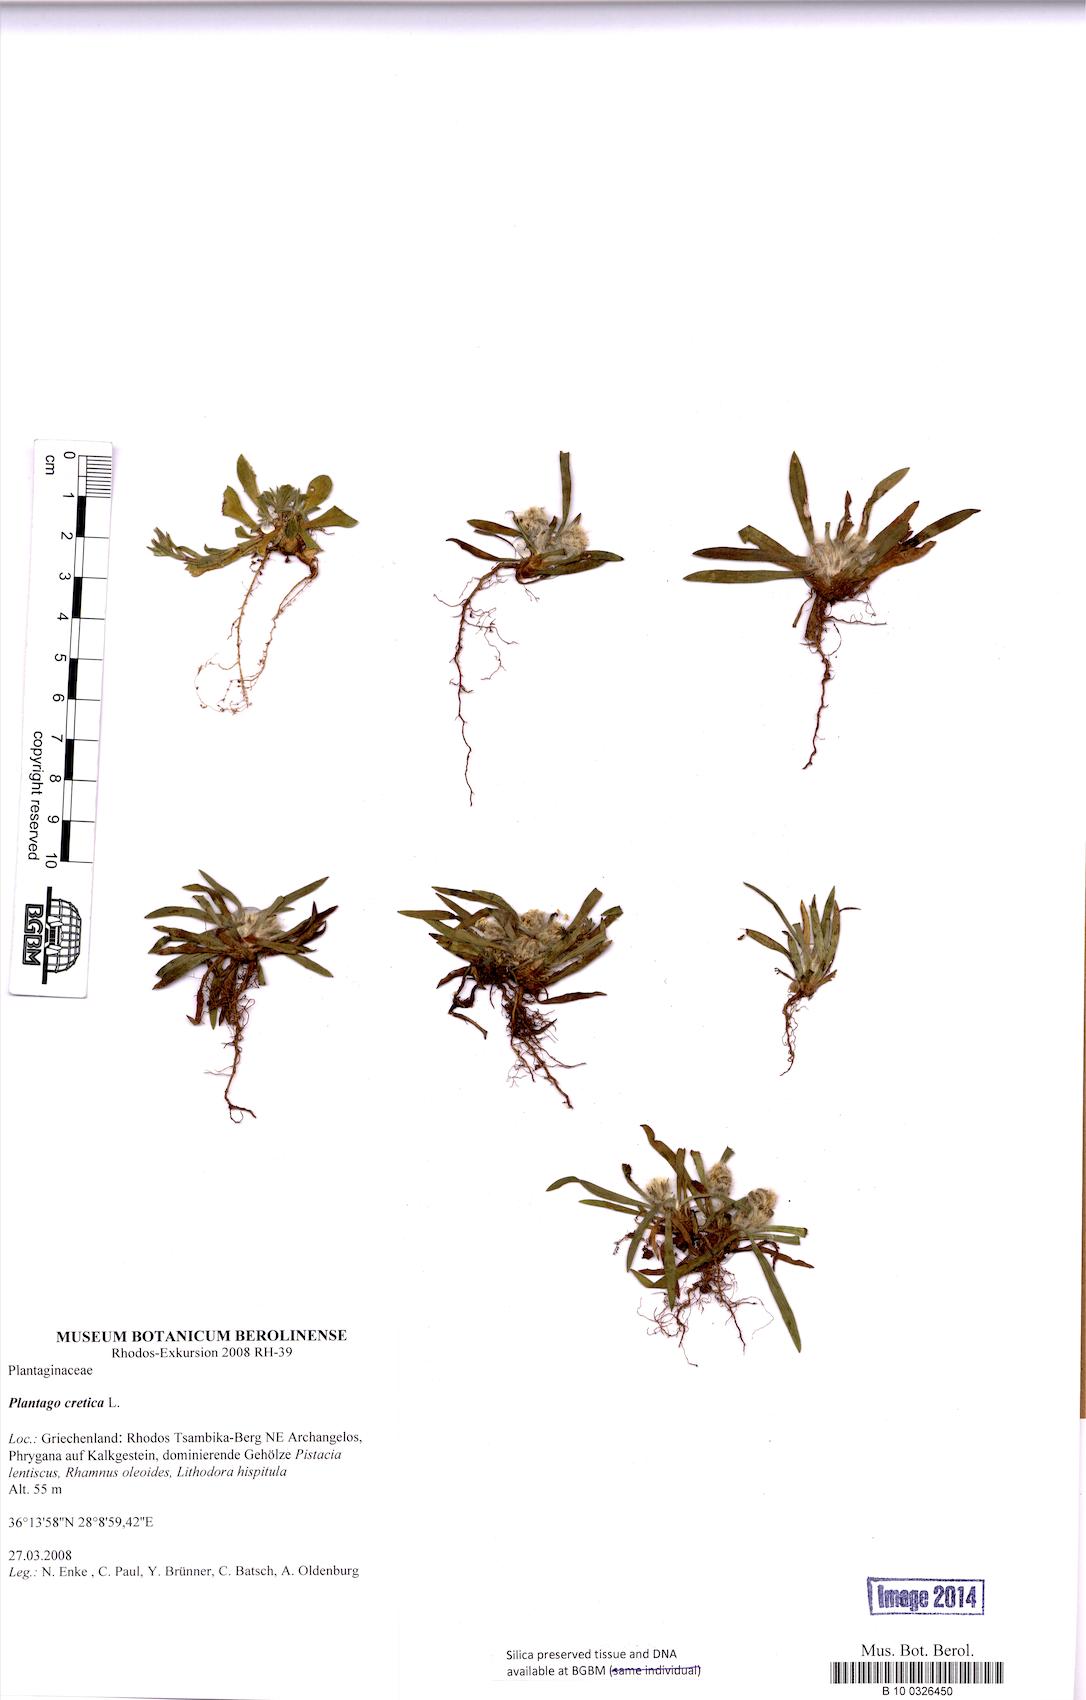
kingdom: Plantae
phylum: Tracheophyta
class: Magnoliopsida
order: Lamiales
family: Plantaginaceae
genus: Plantago
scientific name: Plantago cretica
